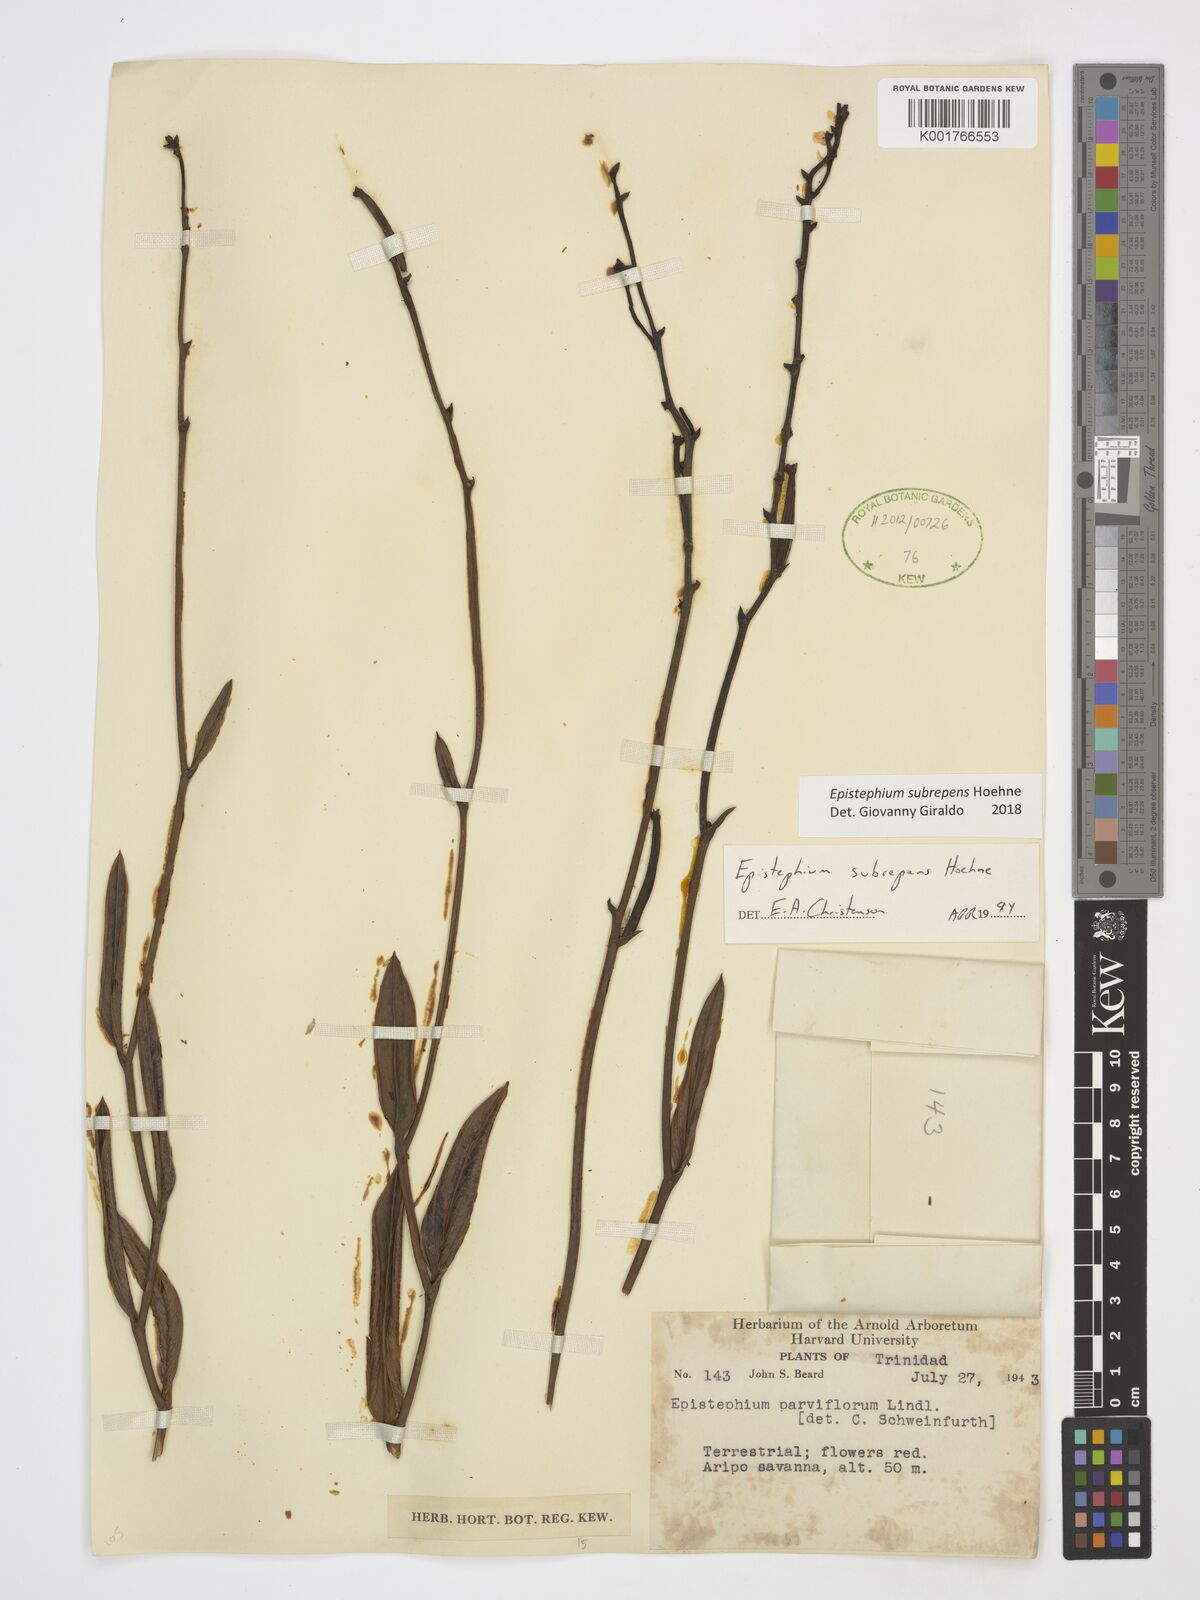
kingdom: Plantae
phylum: Tracheophyta
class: Liliopsida
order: Asparagales
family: Orchidaceae
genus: Epistephium
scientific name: Epistephium subrepens
